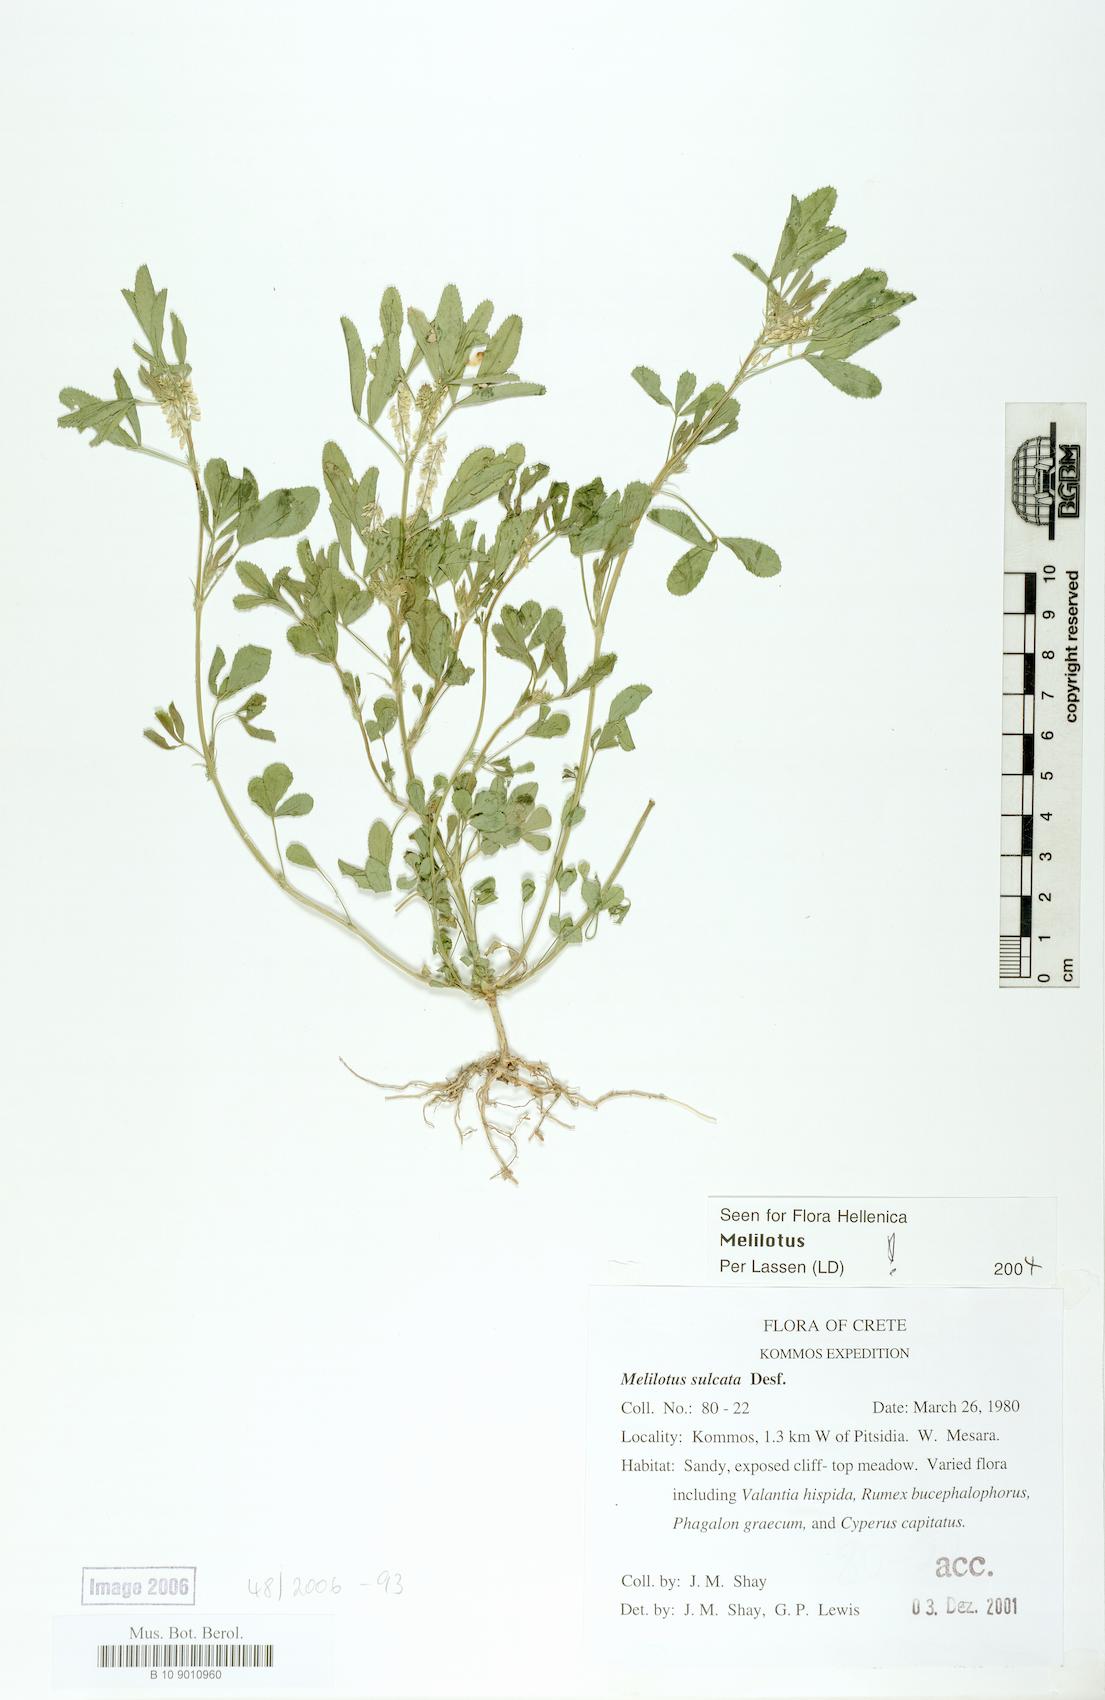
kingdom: Plantae
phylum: Tracheophyta
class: Magnoliopsida
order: Fabales
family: Fabaceae
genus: Melilotus
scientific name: Melilotus sulcatus
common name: Furrowed melilot
